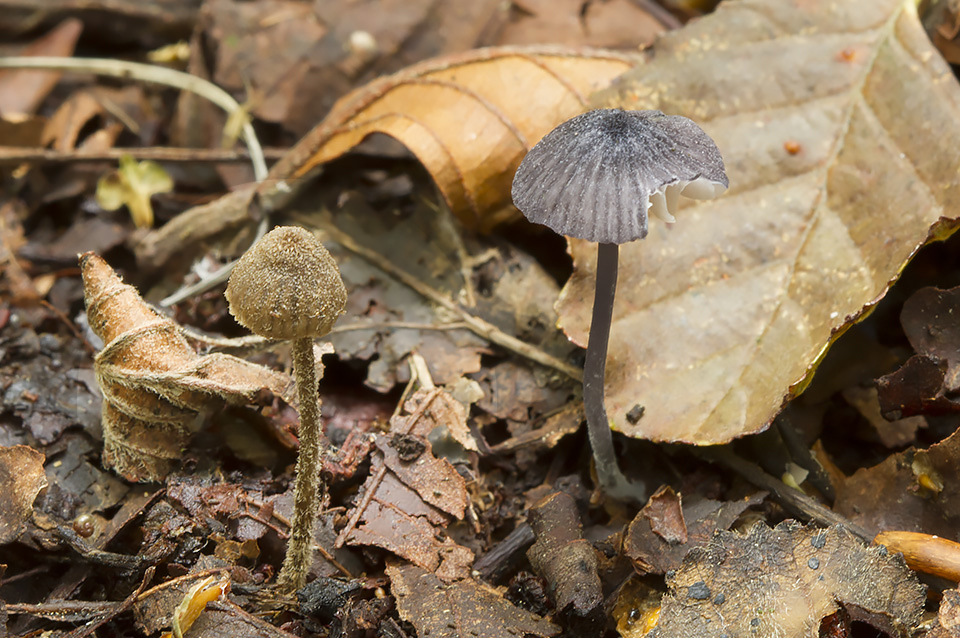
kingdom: Fungi
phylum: Basidiomycota
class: Agaricomycetes
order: Agaricales
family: Entolomataceae
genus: Entoloma
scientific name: Entoloma dysthales
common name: gråhåret rødblad
